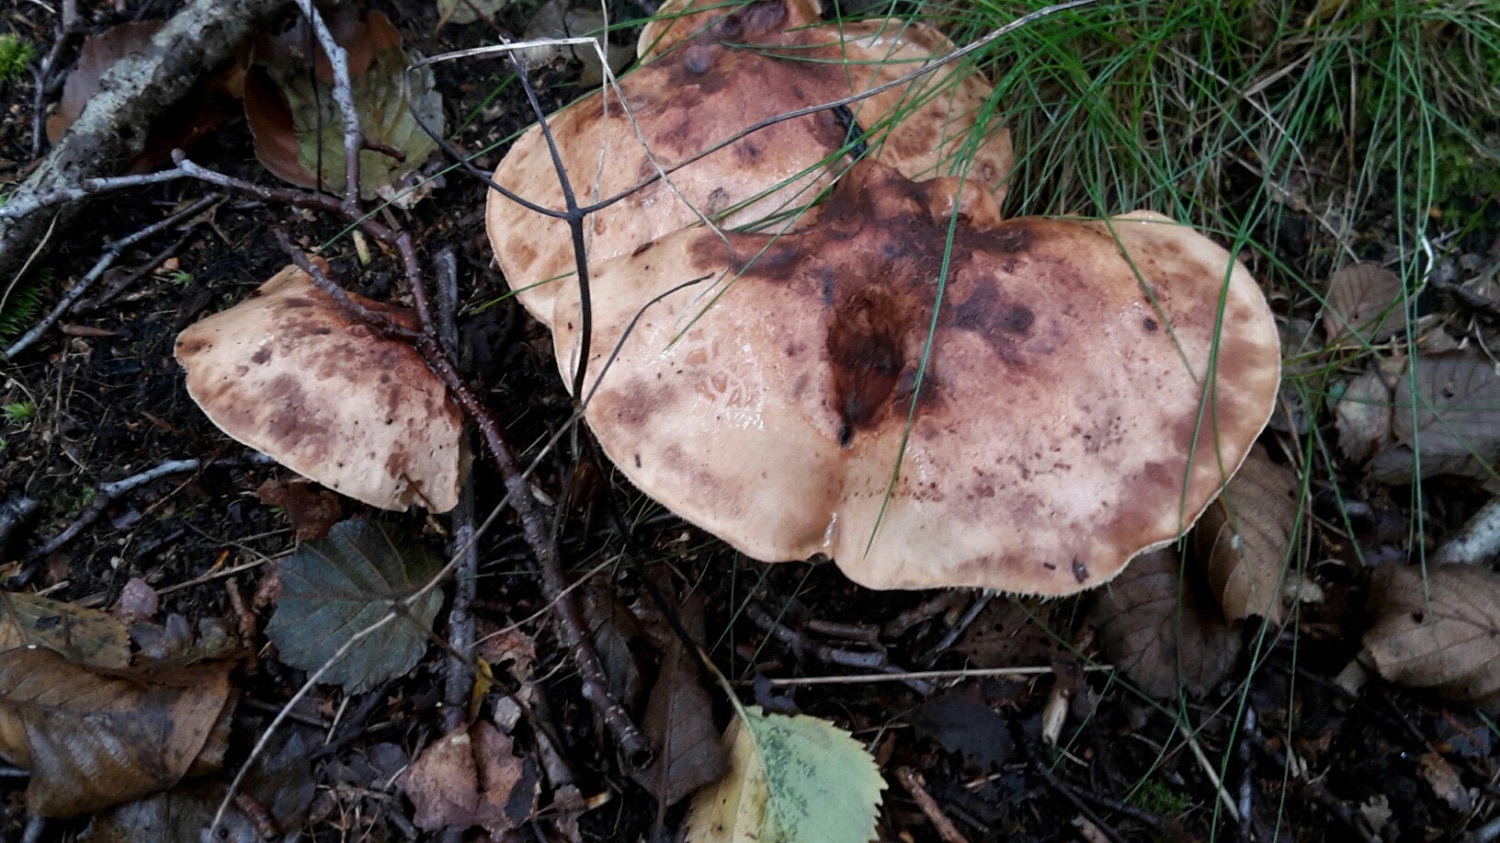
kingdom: Fungi
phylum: Basidiomycota
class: Agaricomycetes
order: Agaricales
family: Tricholomataceae
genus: Tricholoma
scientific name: Tricholoma fulvum
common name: birke-ridderhat
